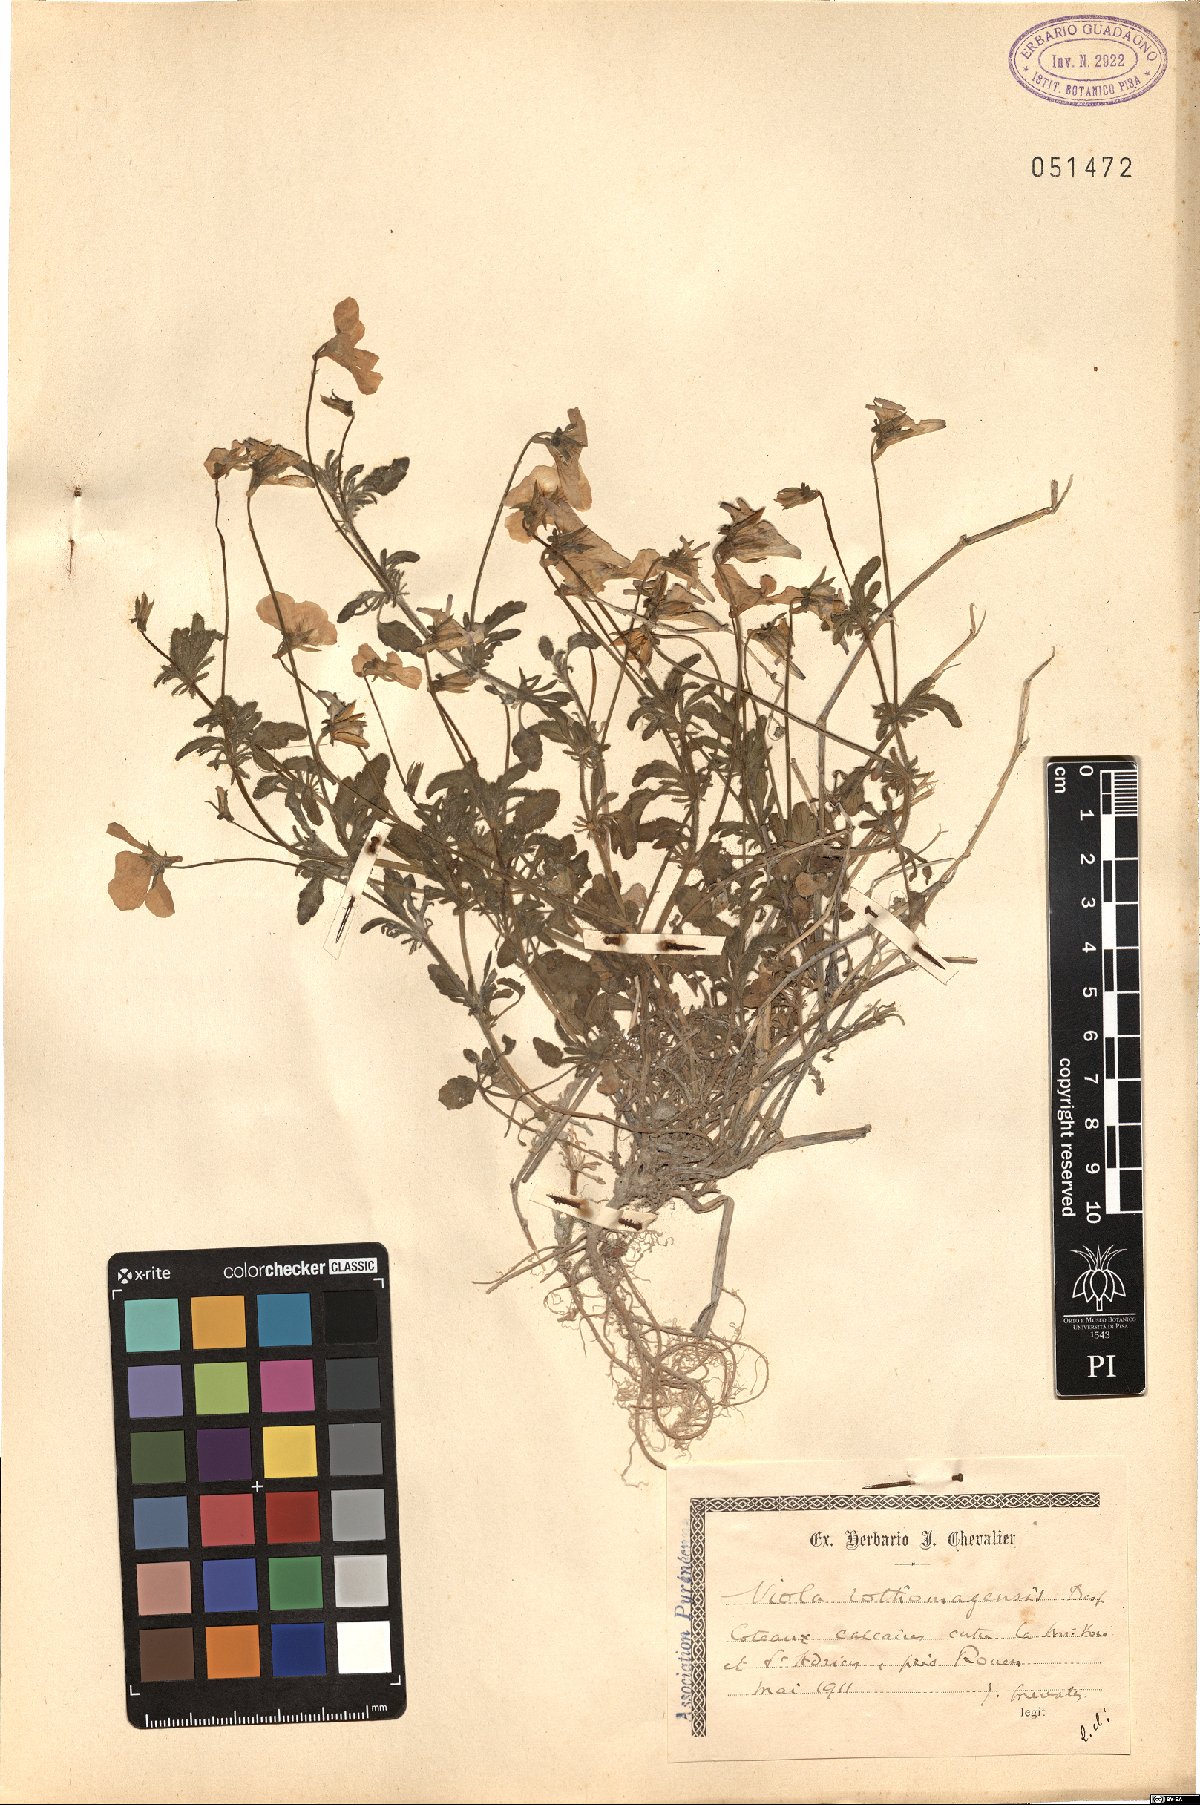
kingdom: Plantae
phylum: Tracheophyta
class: Magnoliopsida
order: Malpighiales
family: Violaceae
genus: Viola
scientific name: Viola hispida
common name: Rouen pansy
